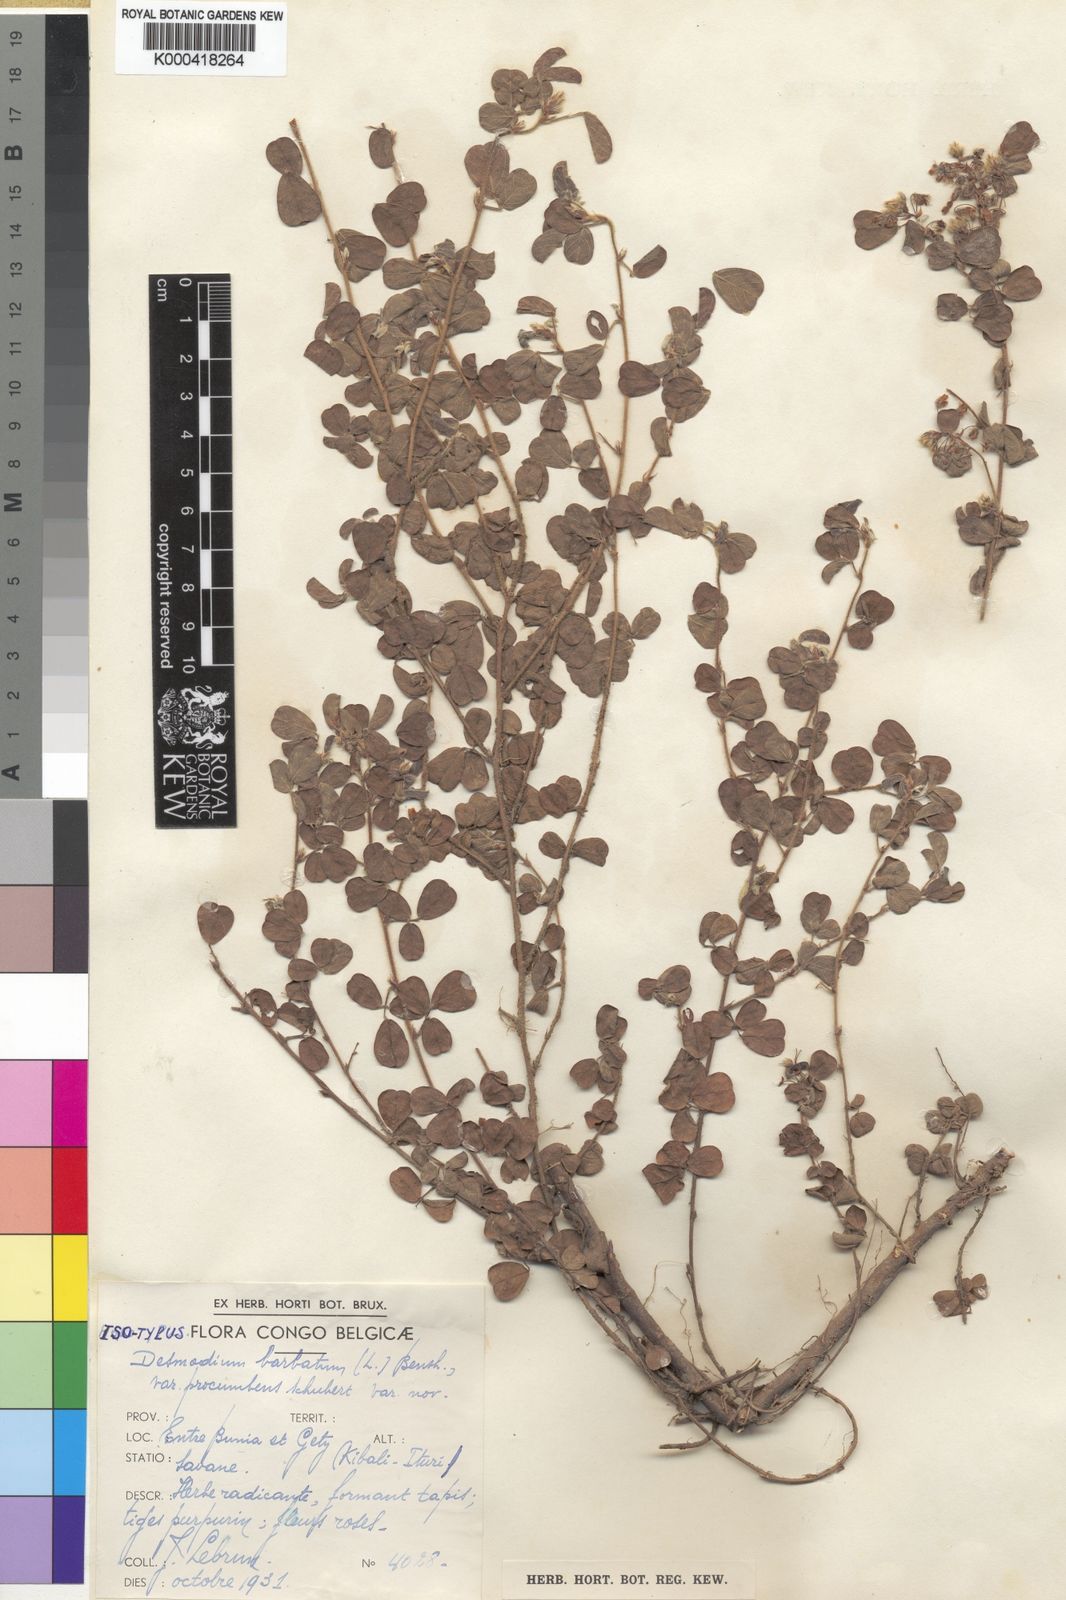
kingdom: Plantae
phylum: Tracheophyta
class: Magnoliopsida
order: Fabales
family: Fabaceae
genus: Grona
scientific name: Grona barbata
